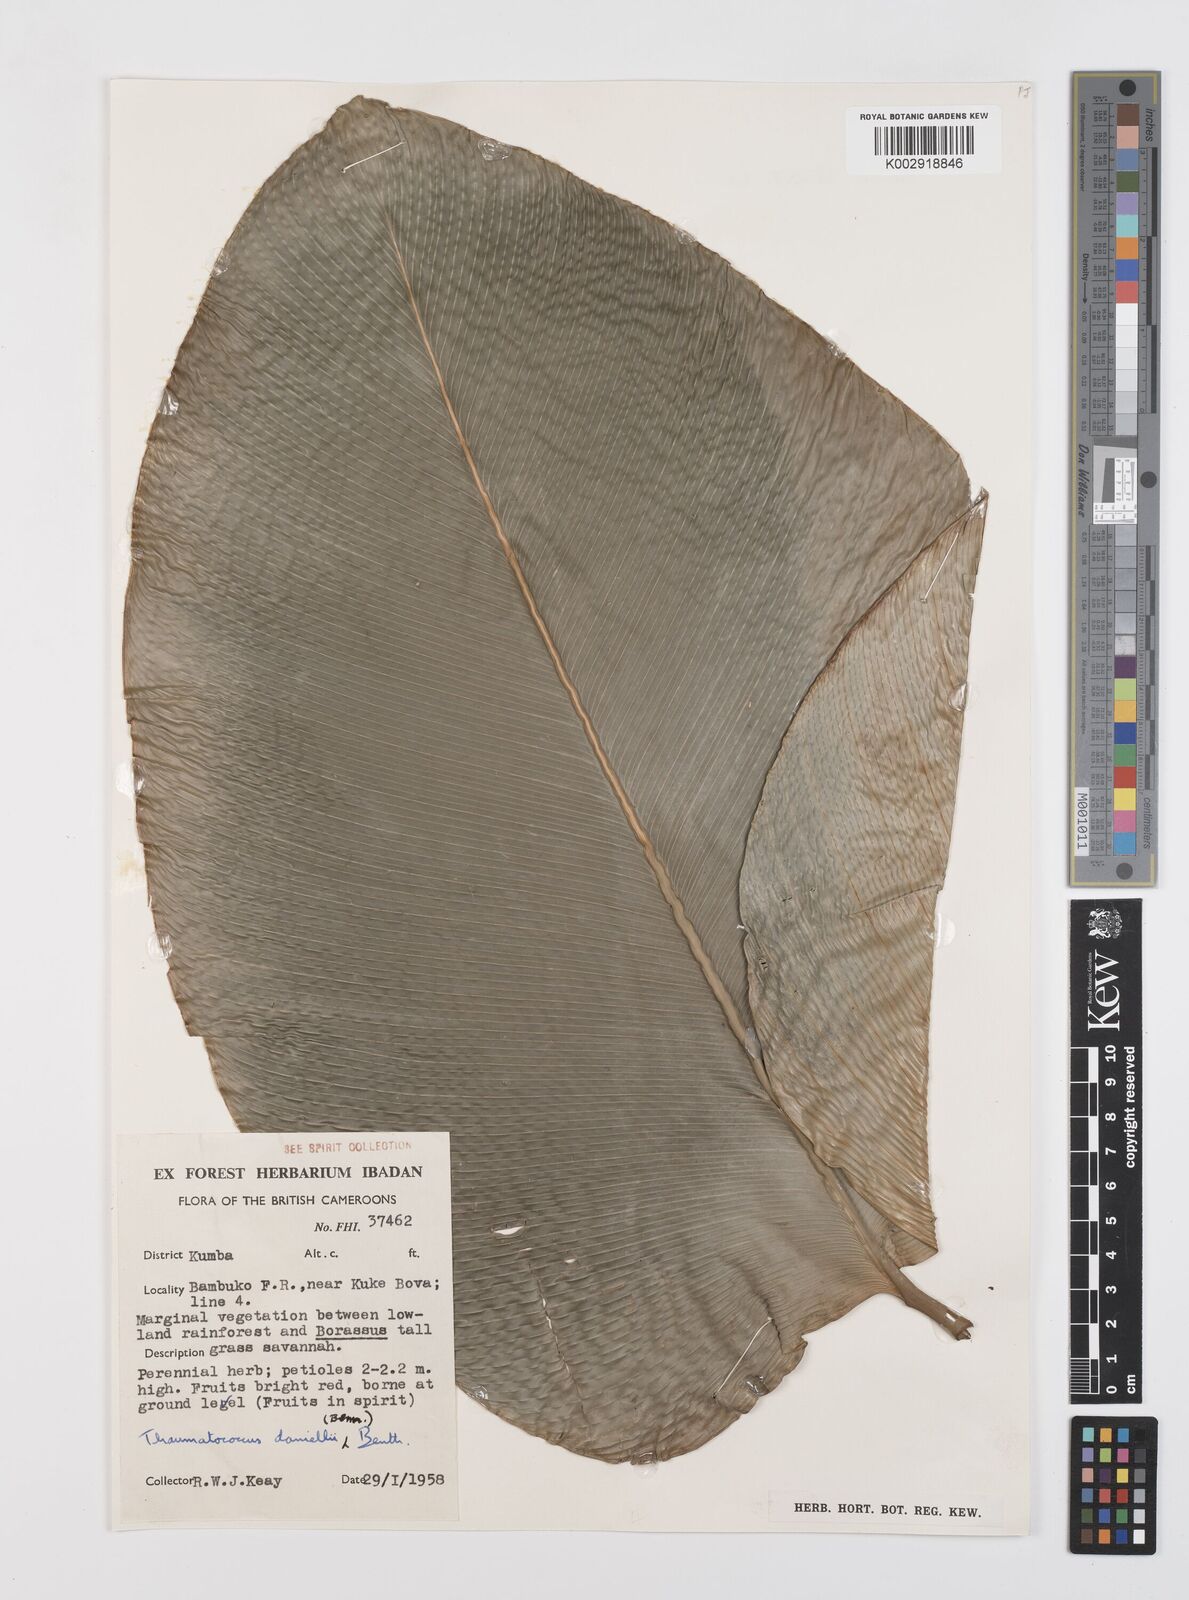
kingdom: Plantae
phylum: Tracheophyta
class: Liliopsida
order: Zingiberales
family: Marantaceae
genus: Thaumatococcus
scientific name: Thaumatococcus daniellii
